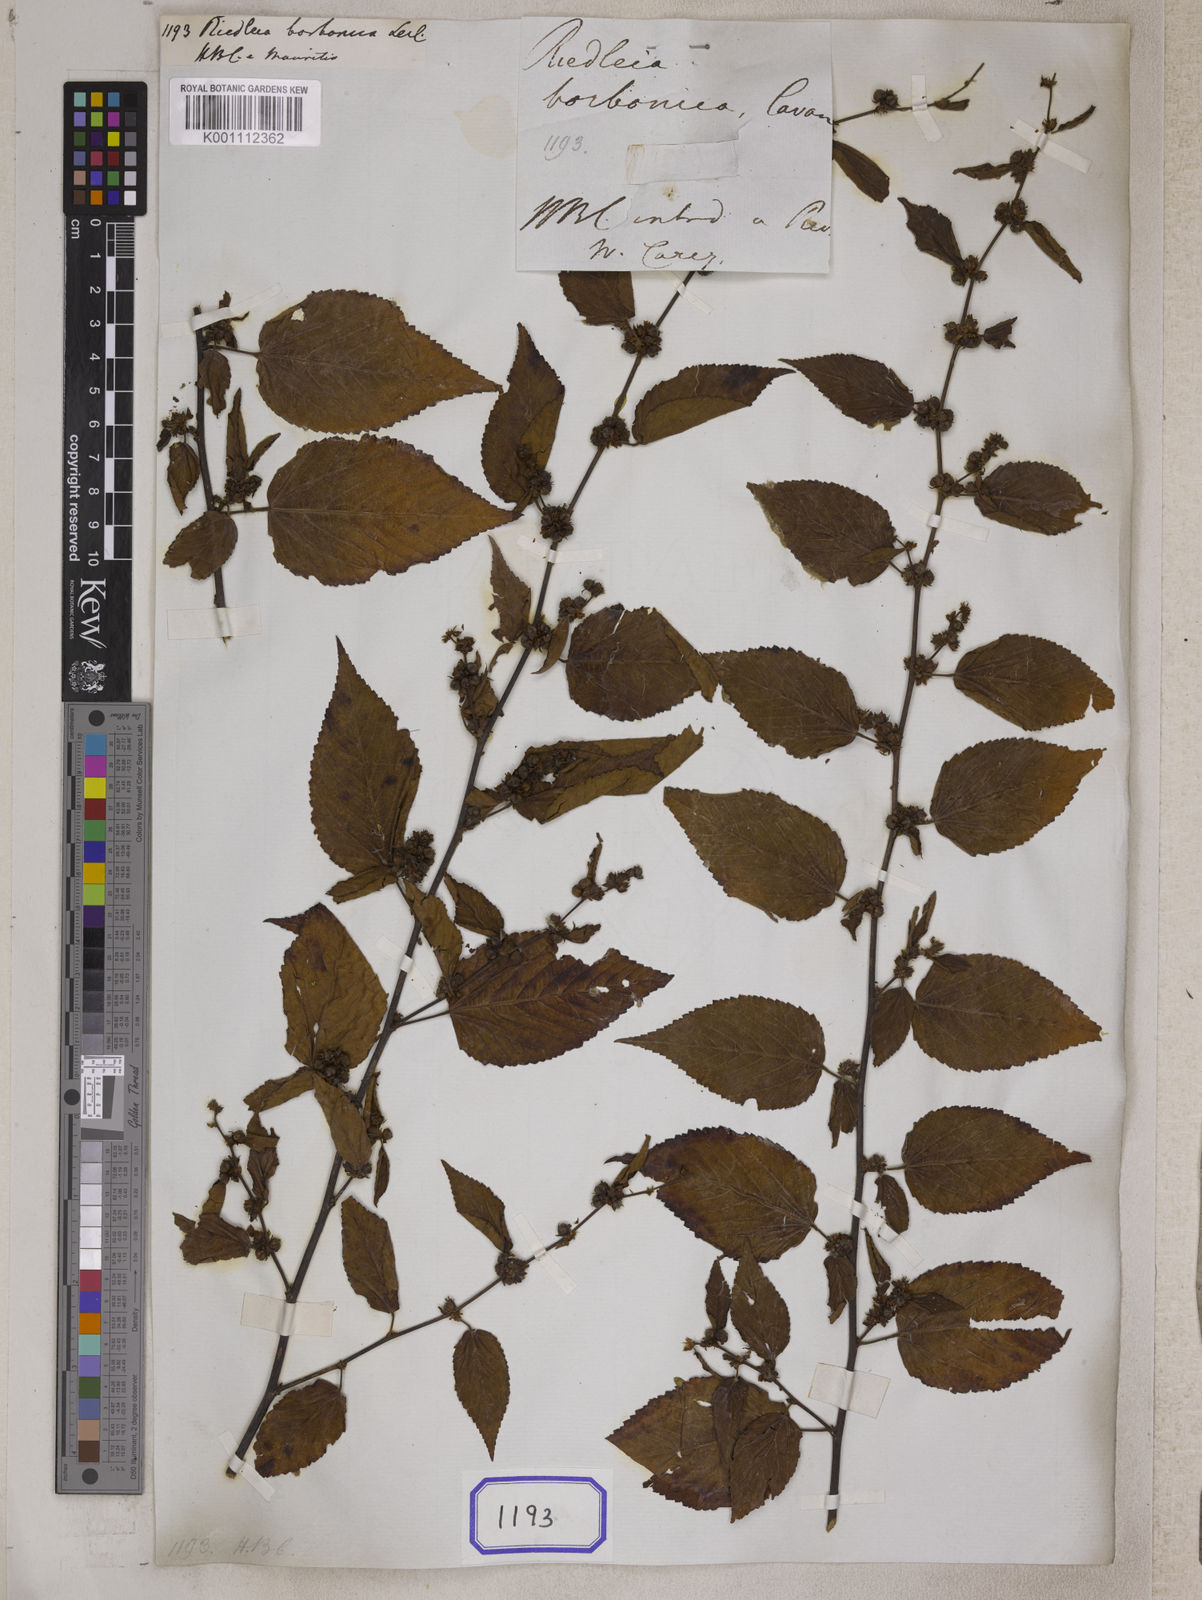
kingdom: Plantae
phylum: Tracheophyta
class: Magnoliopsida
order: Malvales
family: Malvaceae
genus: Melochia
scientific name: Melochia corchorifolia
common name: Chocolateweed
